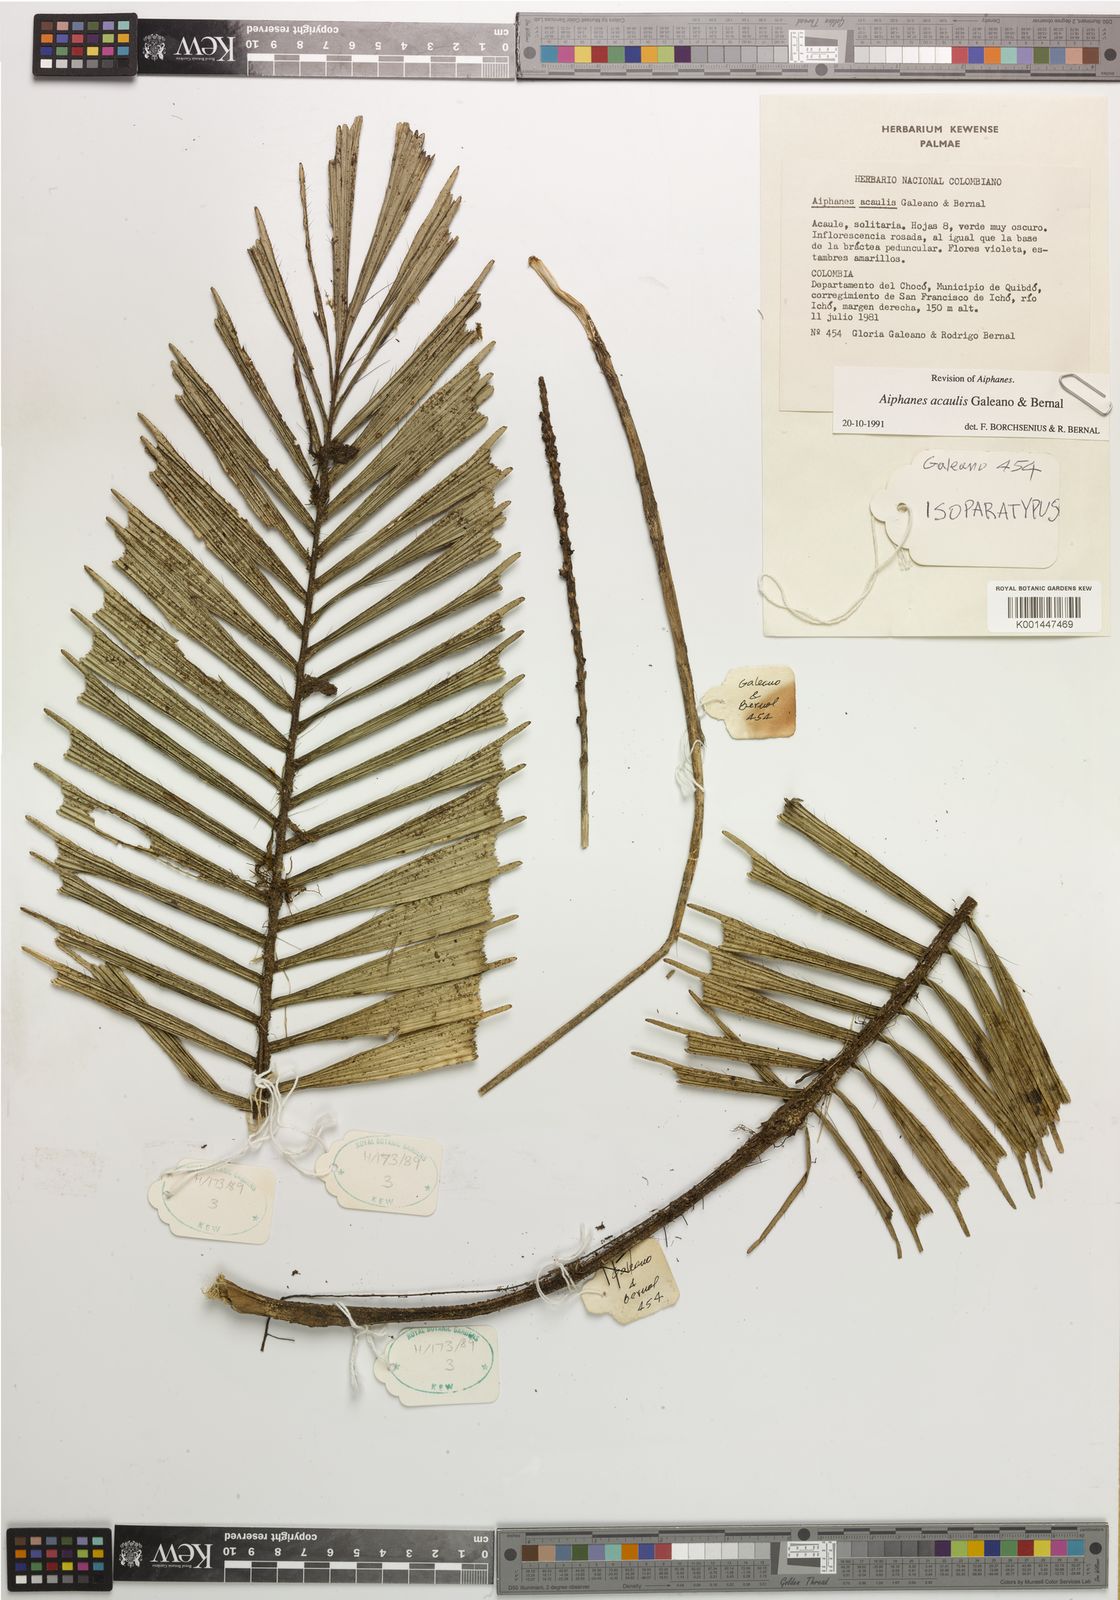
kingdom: Plantae
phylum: Tracheophyta
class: Liliopsida
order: Arecales
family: Arecaceae
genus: Aiphanes
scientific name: Aiphanes acaulis
